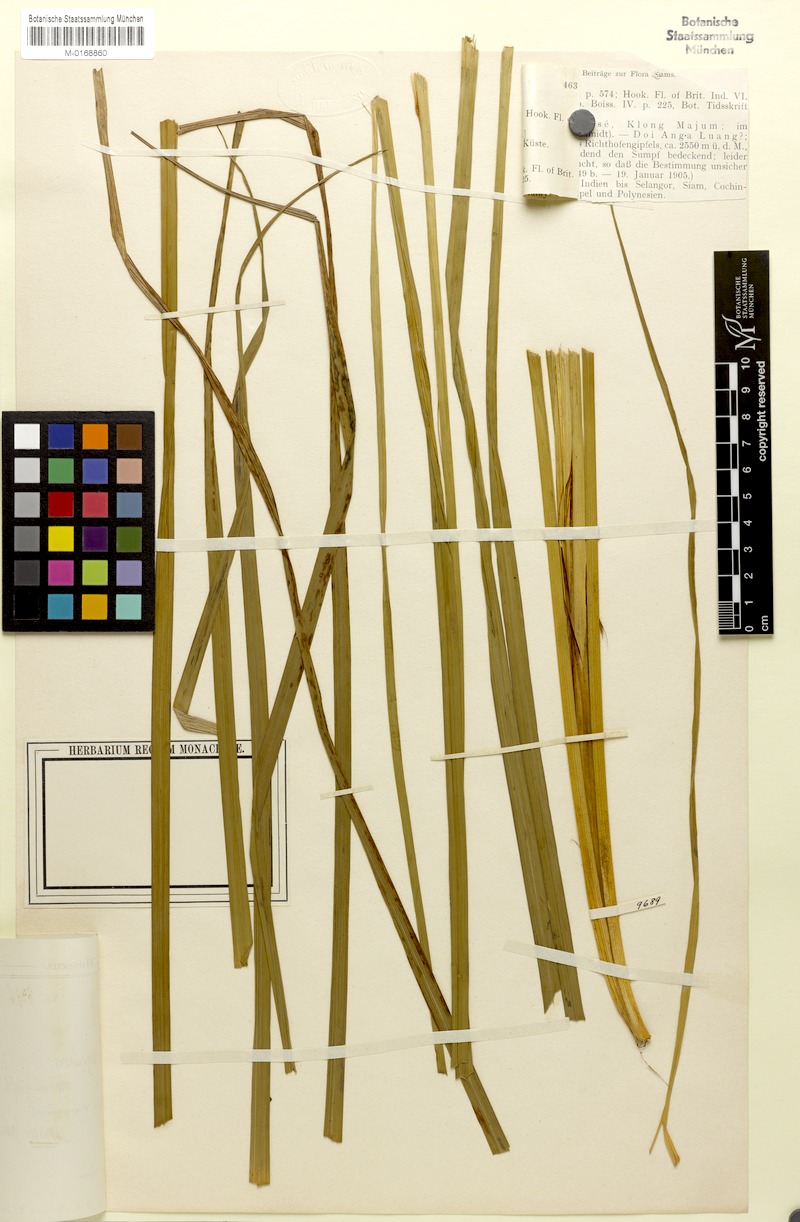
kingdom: Plantae
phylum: Tracheophyta
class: Liliopsida
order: Poales
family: Cyperaceae
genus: Carex
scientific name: Carex indica
